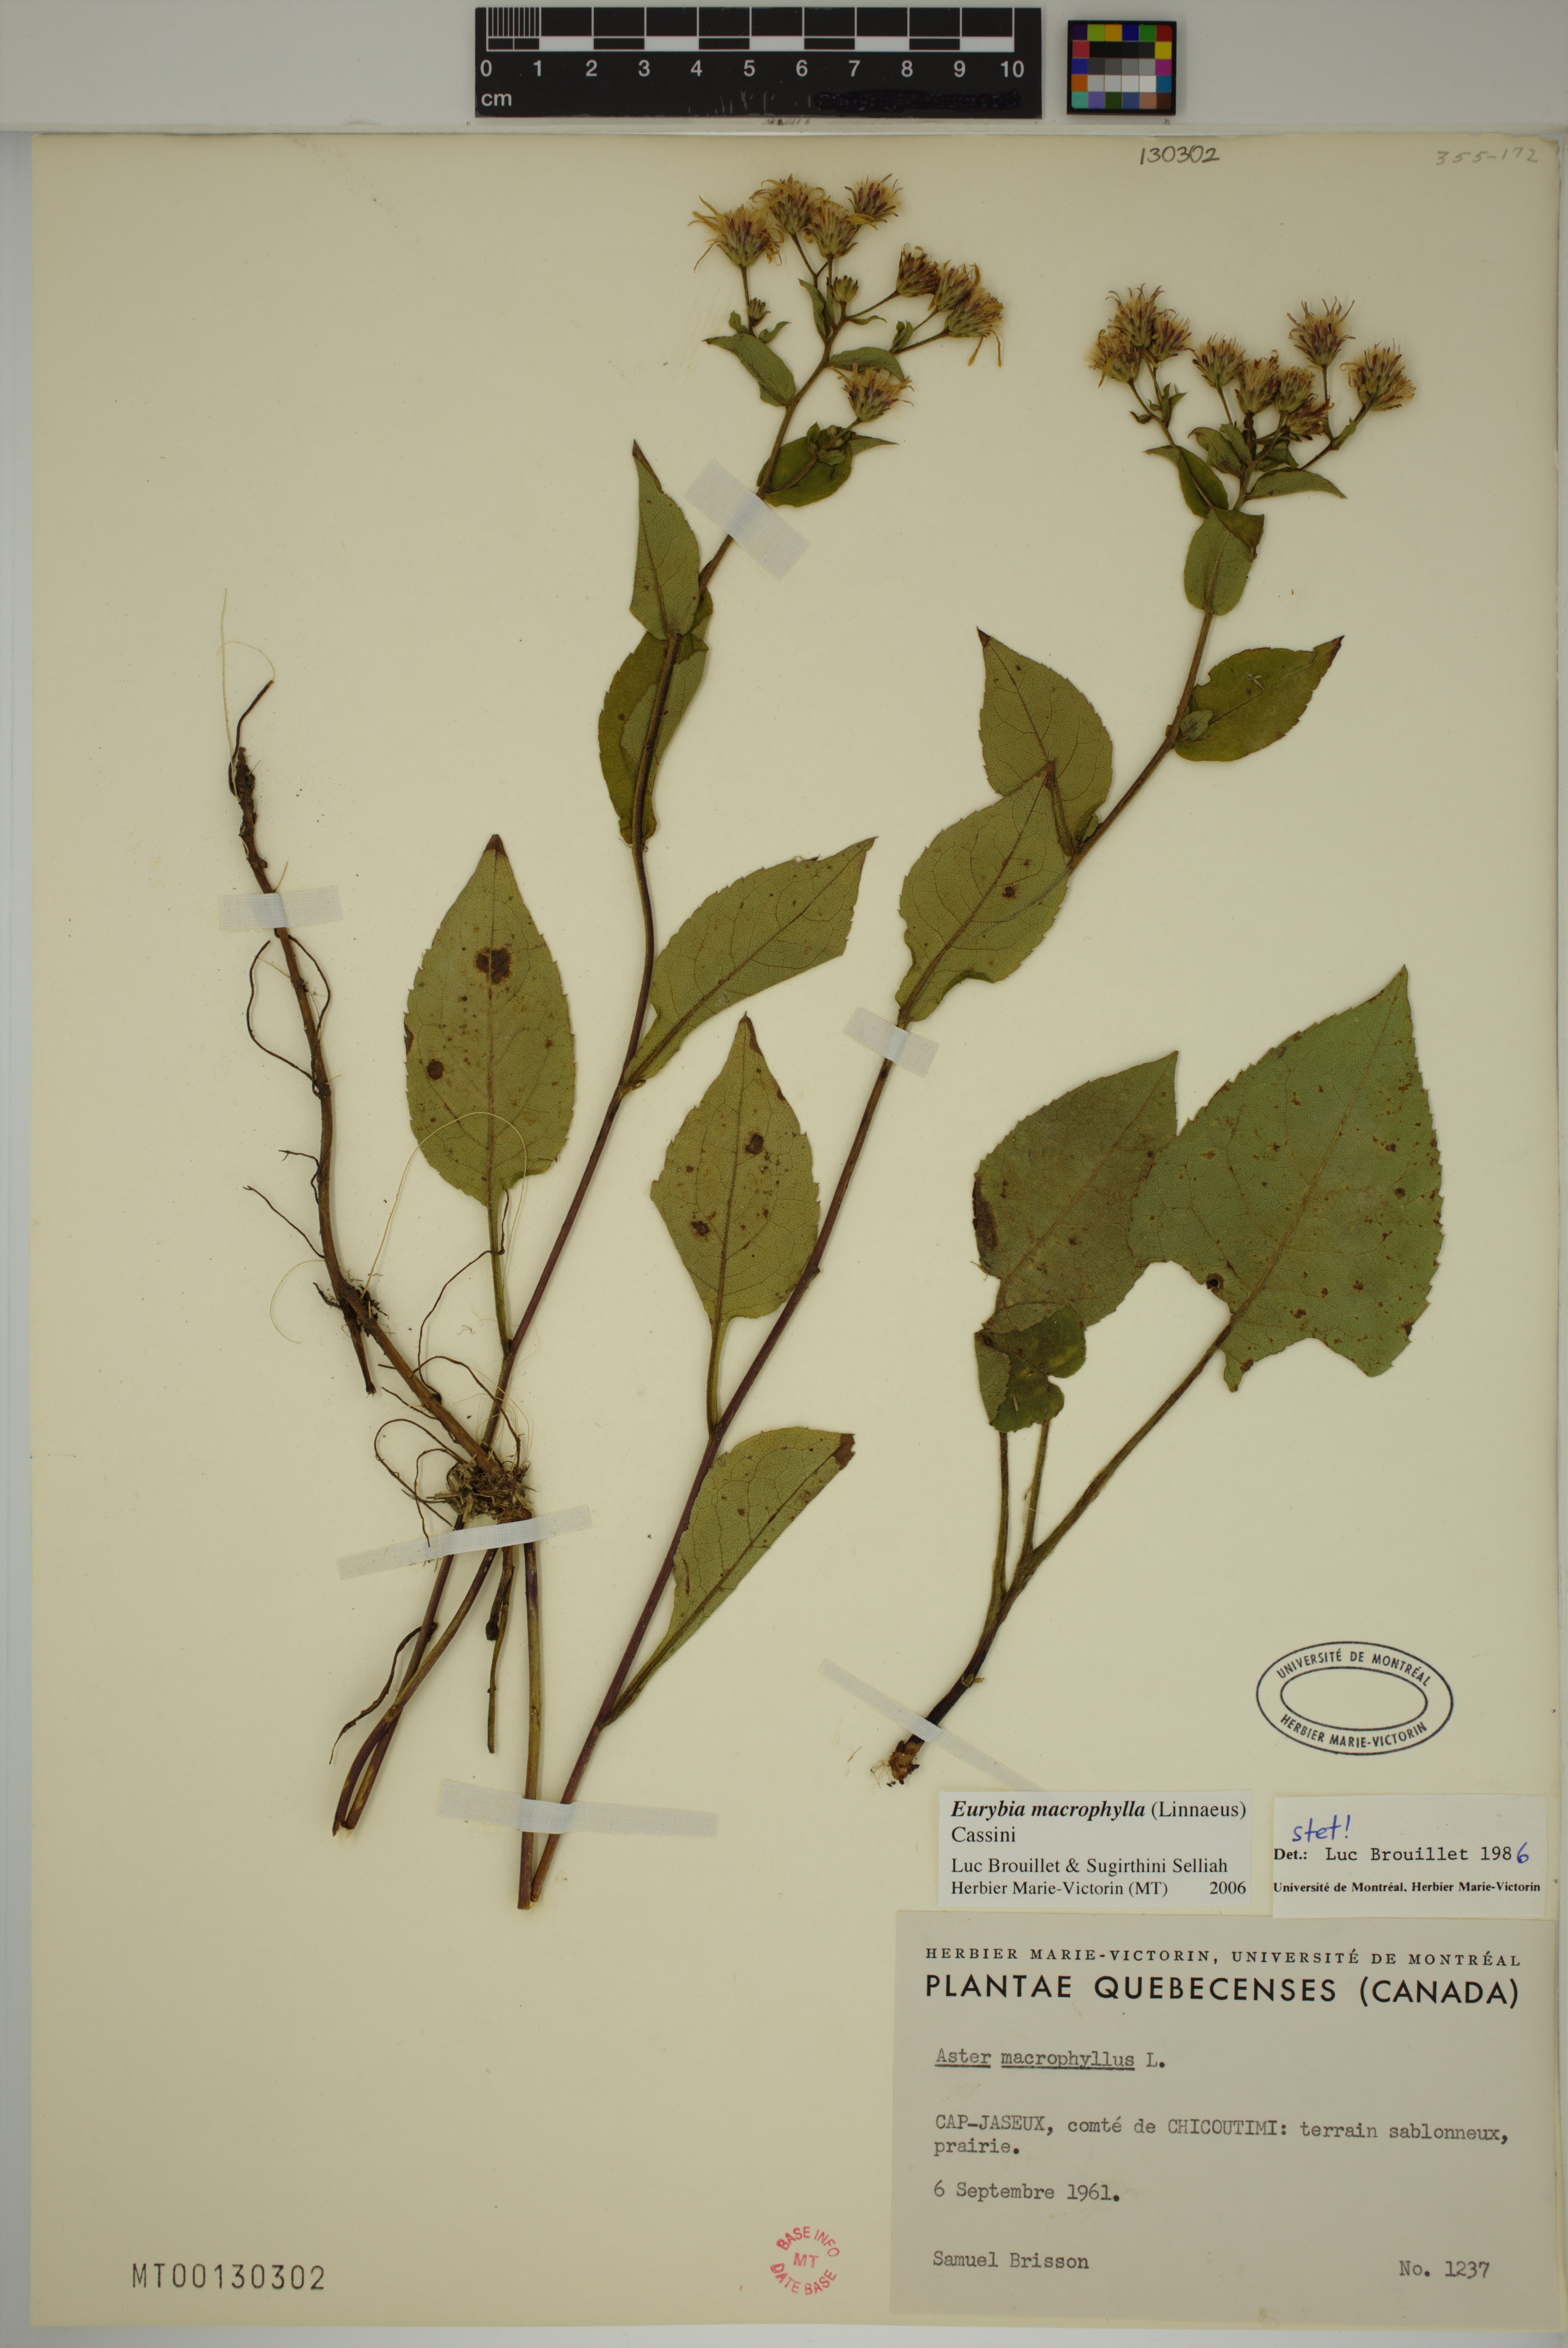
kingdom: Plantae
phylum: Tracheophyta
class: Magnoliopsida
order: Asterales
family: Asteraceae
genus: Eurybia
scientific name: Eurybia macrophylla
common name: Big-leaved aster
